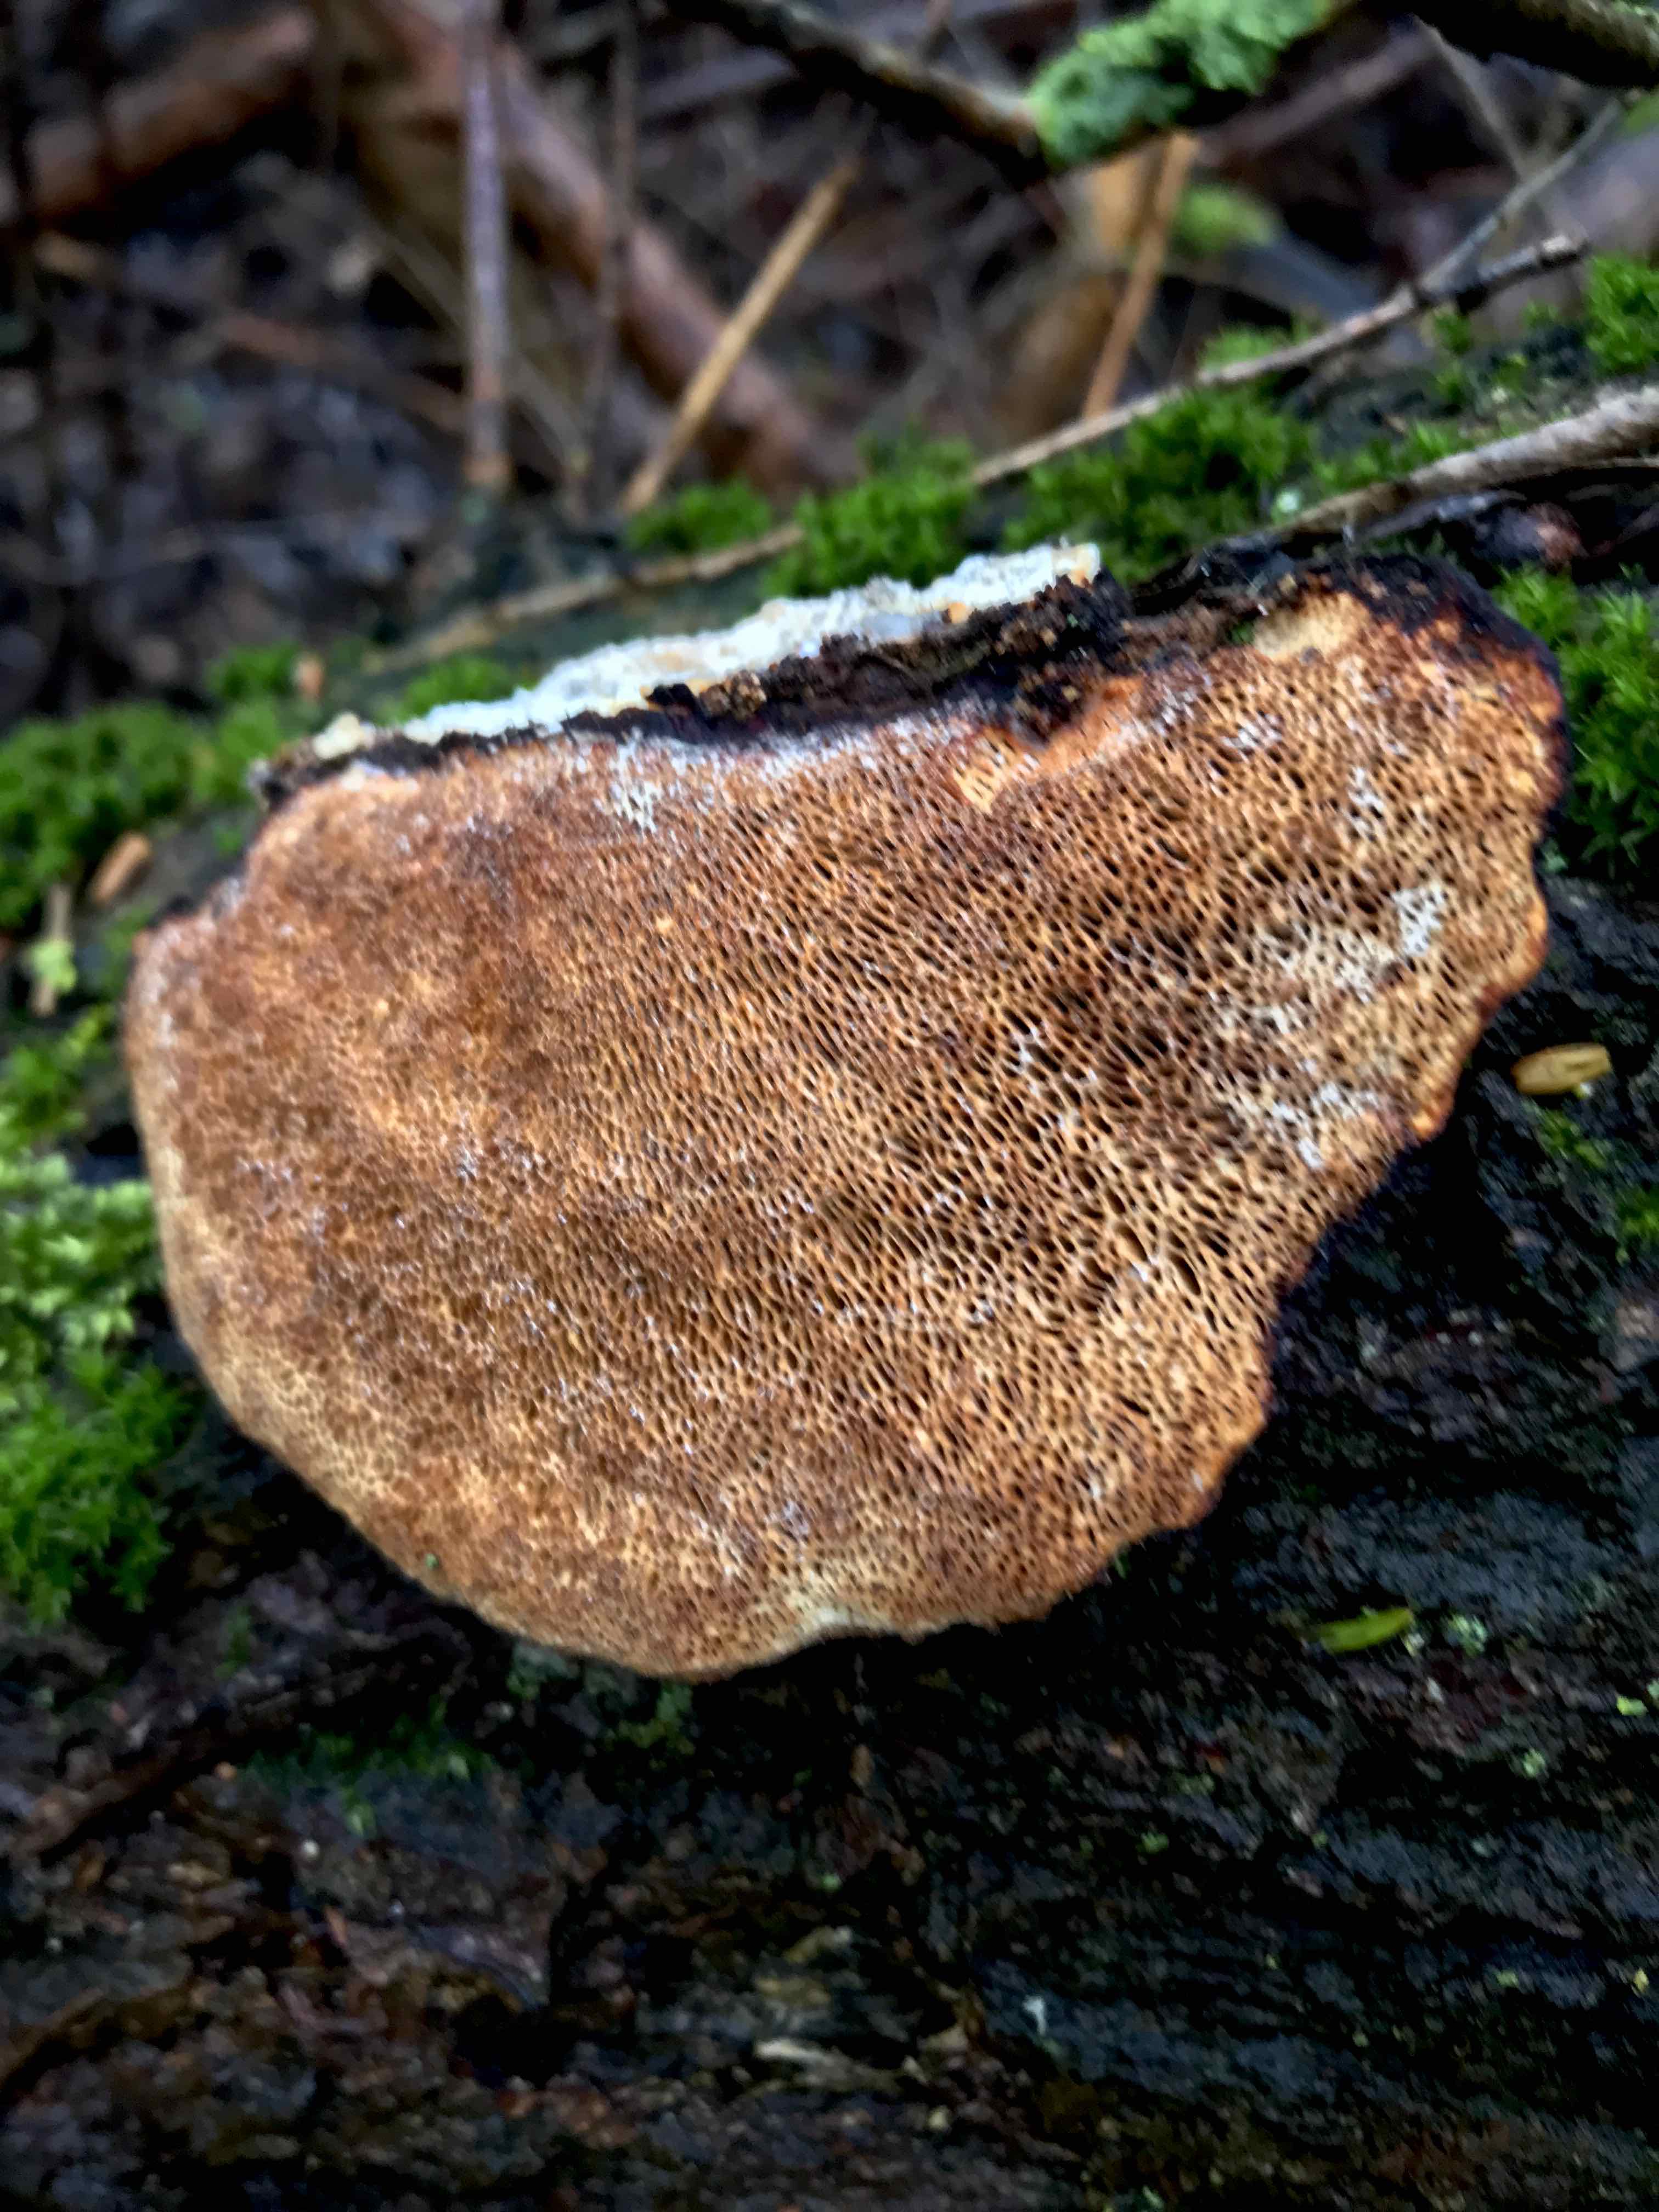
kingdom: Fungi
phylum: Basidiomycota
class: Agaricomycetes
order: Polyporales
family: Polyporaceae
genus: Daedaleopsis
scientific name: Daedaleopsis confragosa
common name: rødmende læderporesvamp
